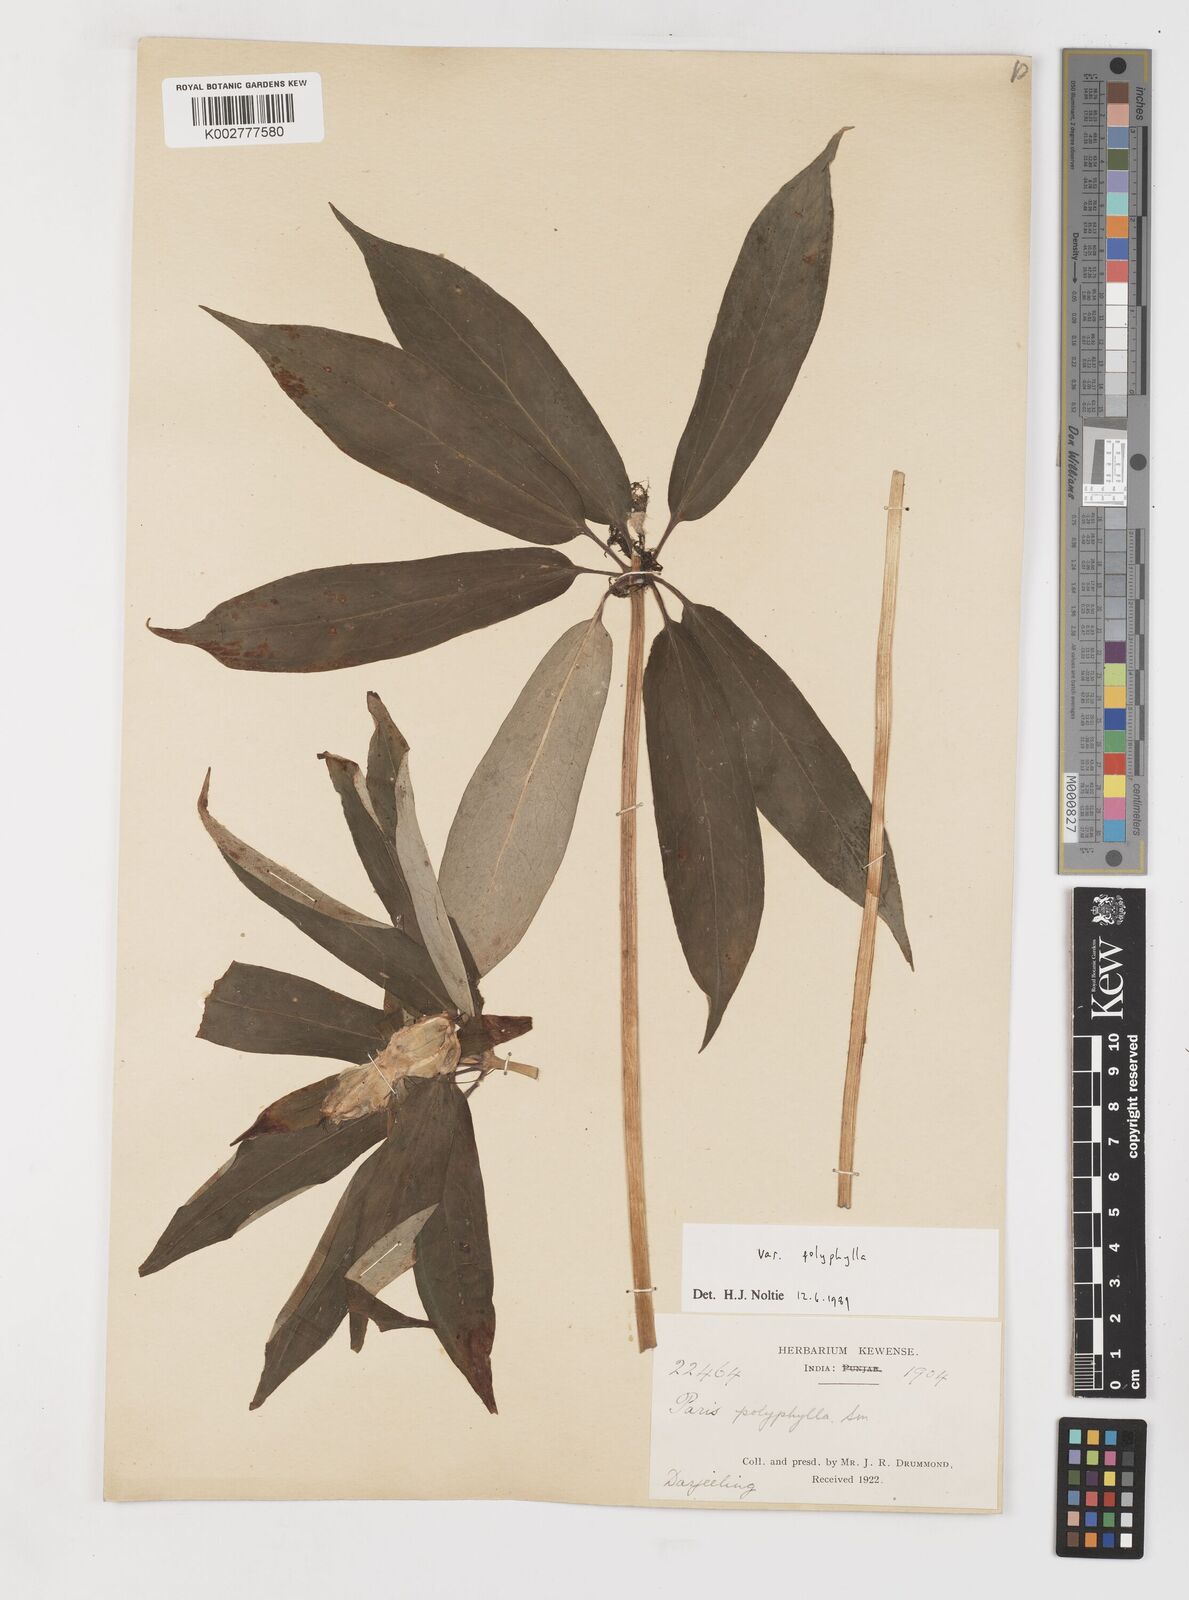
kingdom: Plantae
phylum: Tracheophyta
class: Liliopsida
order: Liliales
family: Melanthiaceae
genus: Paris
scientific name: Paris polyphylla
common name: Love apple
